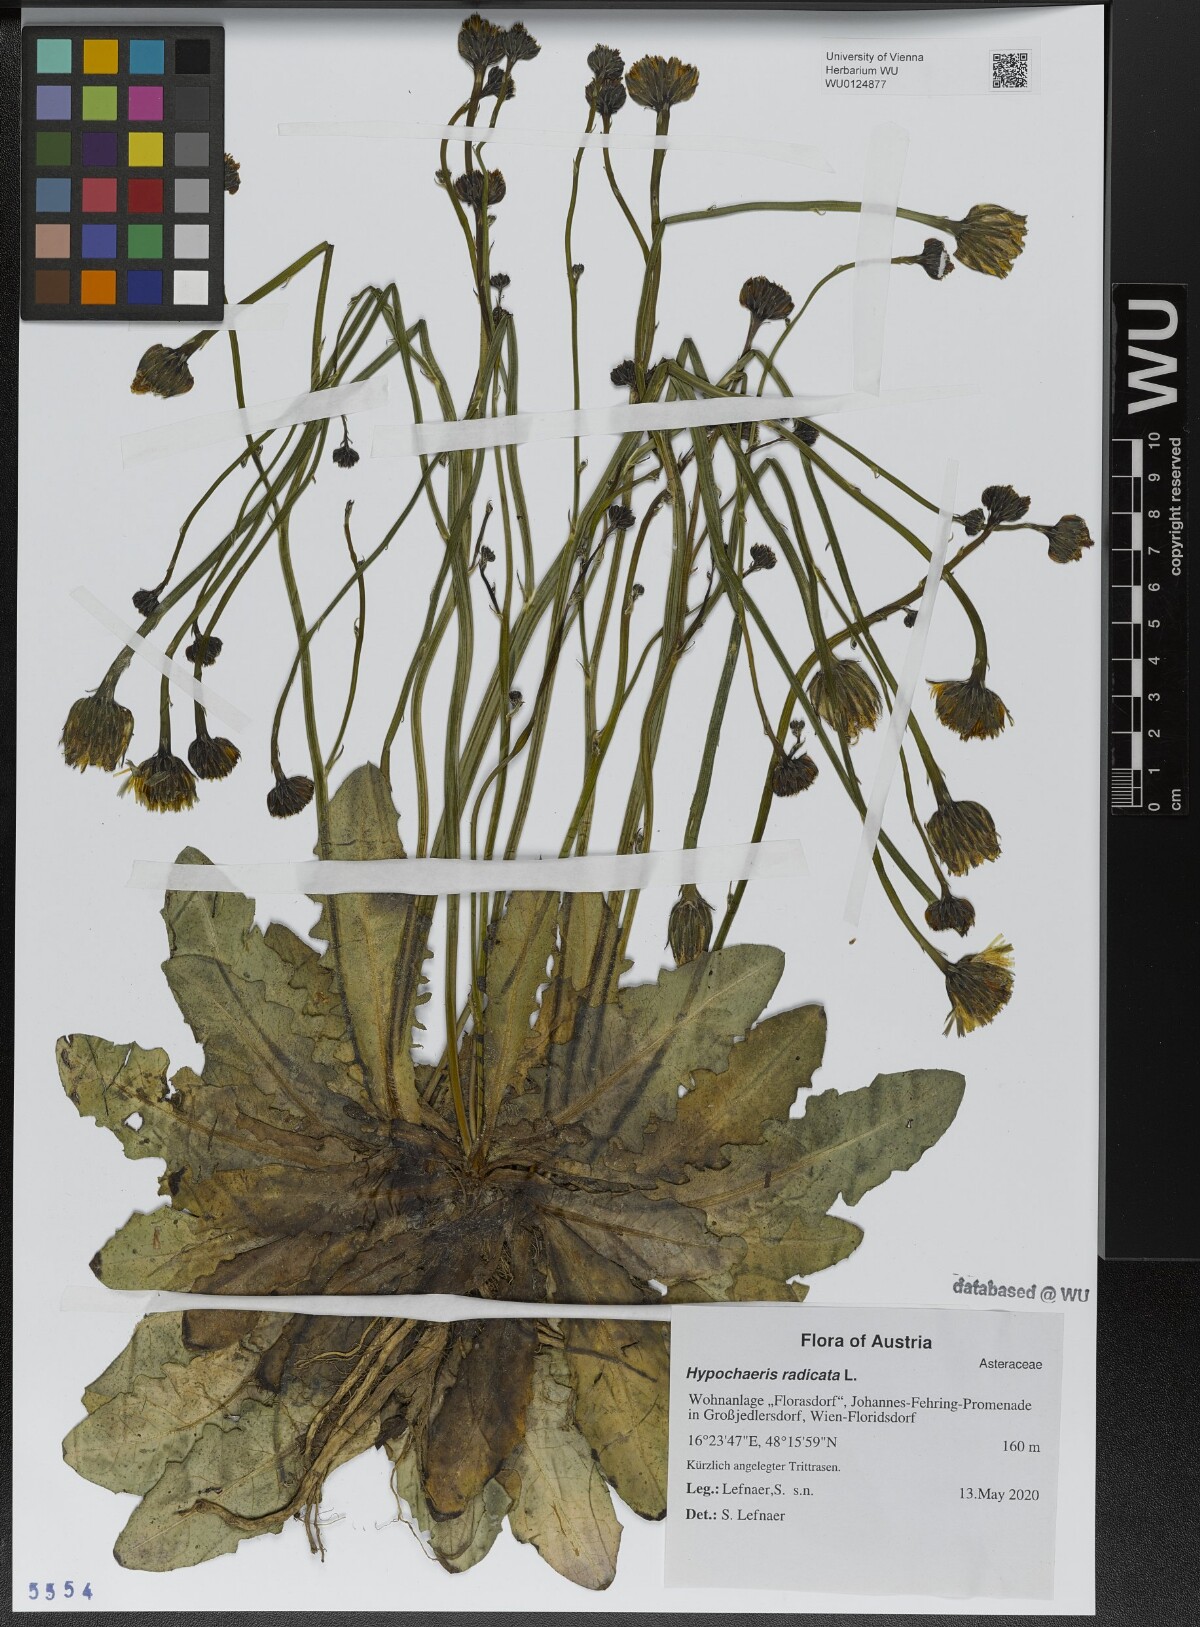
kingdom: Plantae
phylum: Tracheophyta
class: Magnoliopsida
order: Asterales
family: Asteraceae
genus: Hypochaeris
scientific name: Hypochaeris radicata
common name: Flatweed
